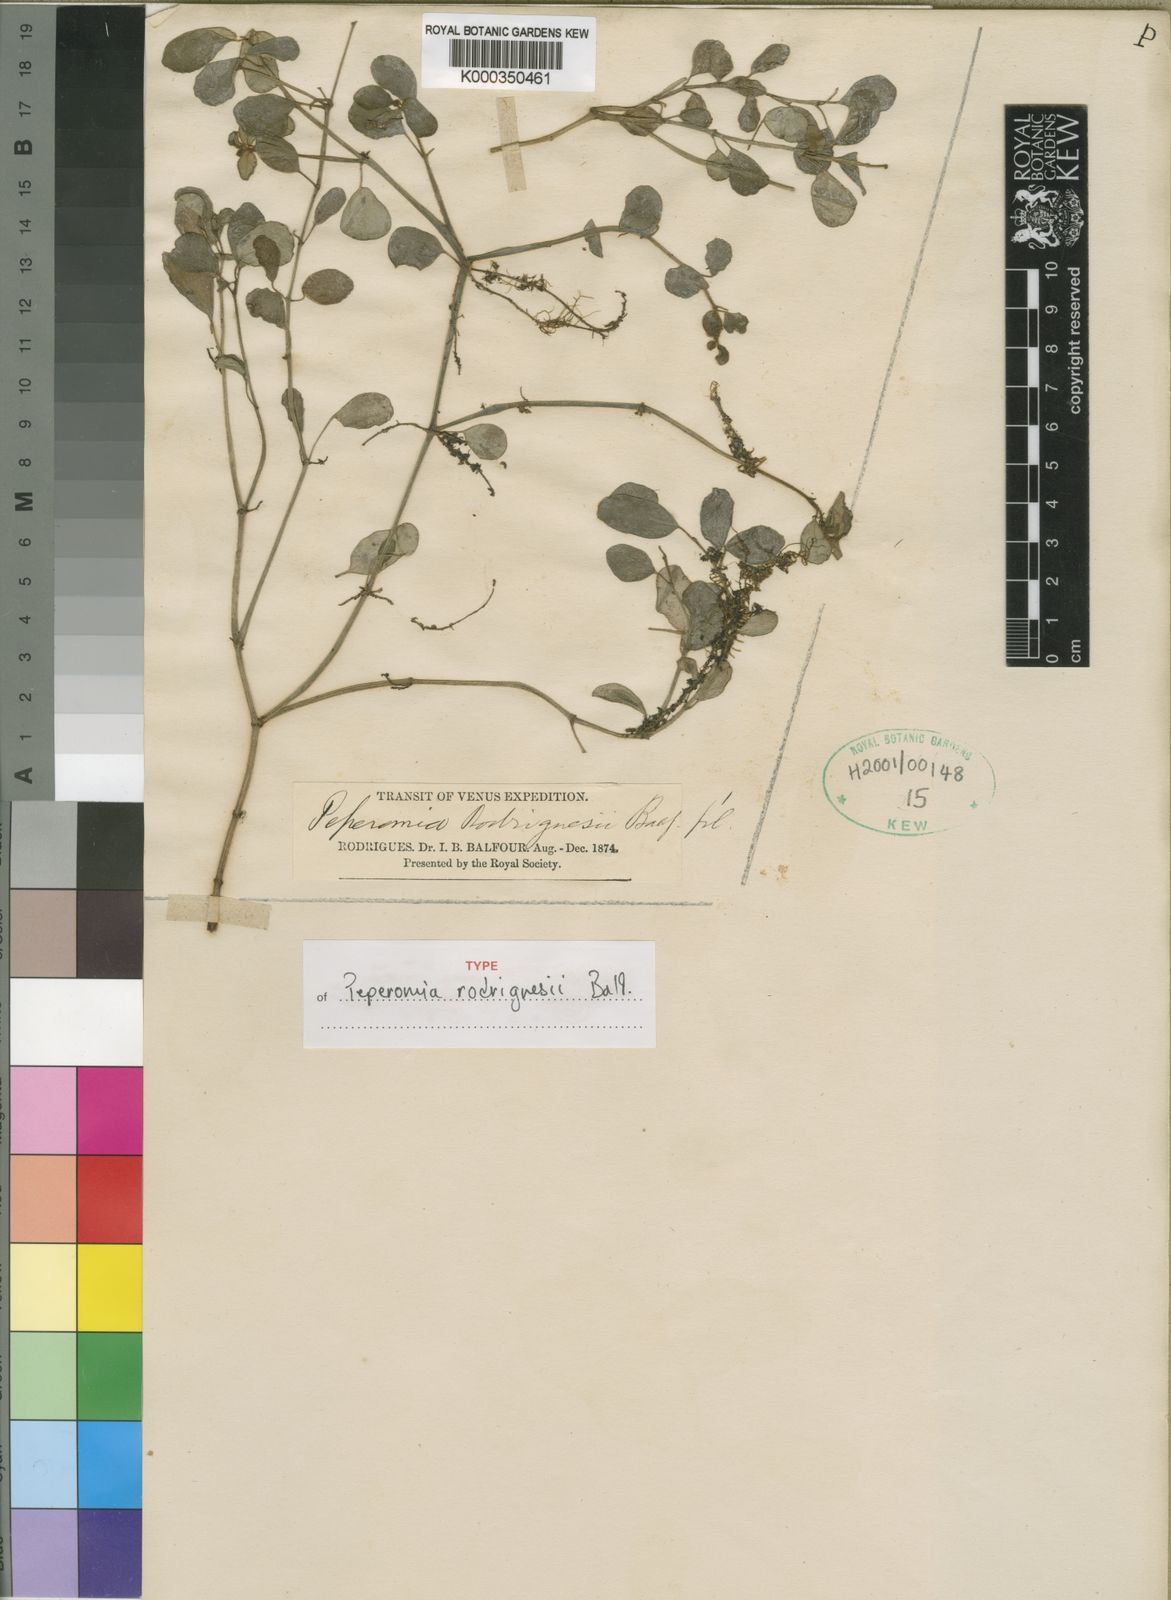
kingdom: Plantae
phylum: Tracheophyta
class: Magnoliopsida
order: Piperales
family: Piperaceae
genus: Peperomia
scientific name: Peperomia
